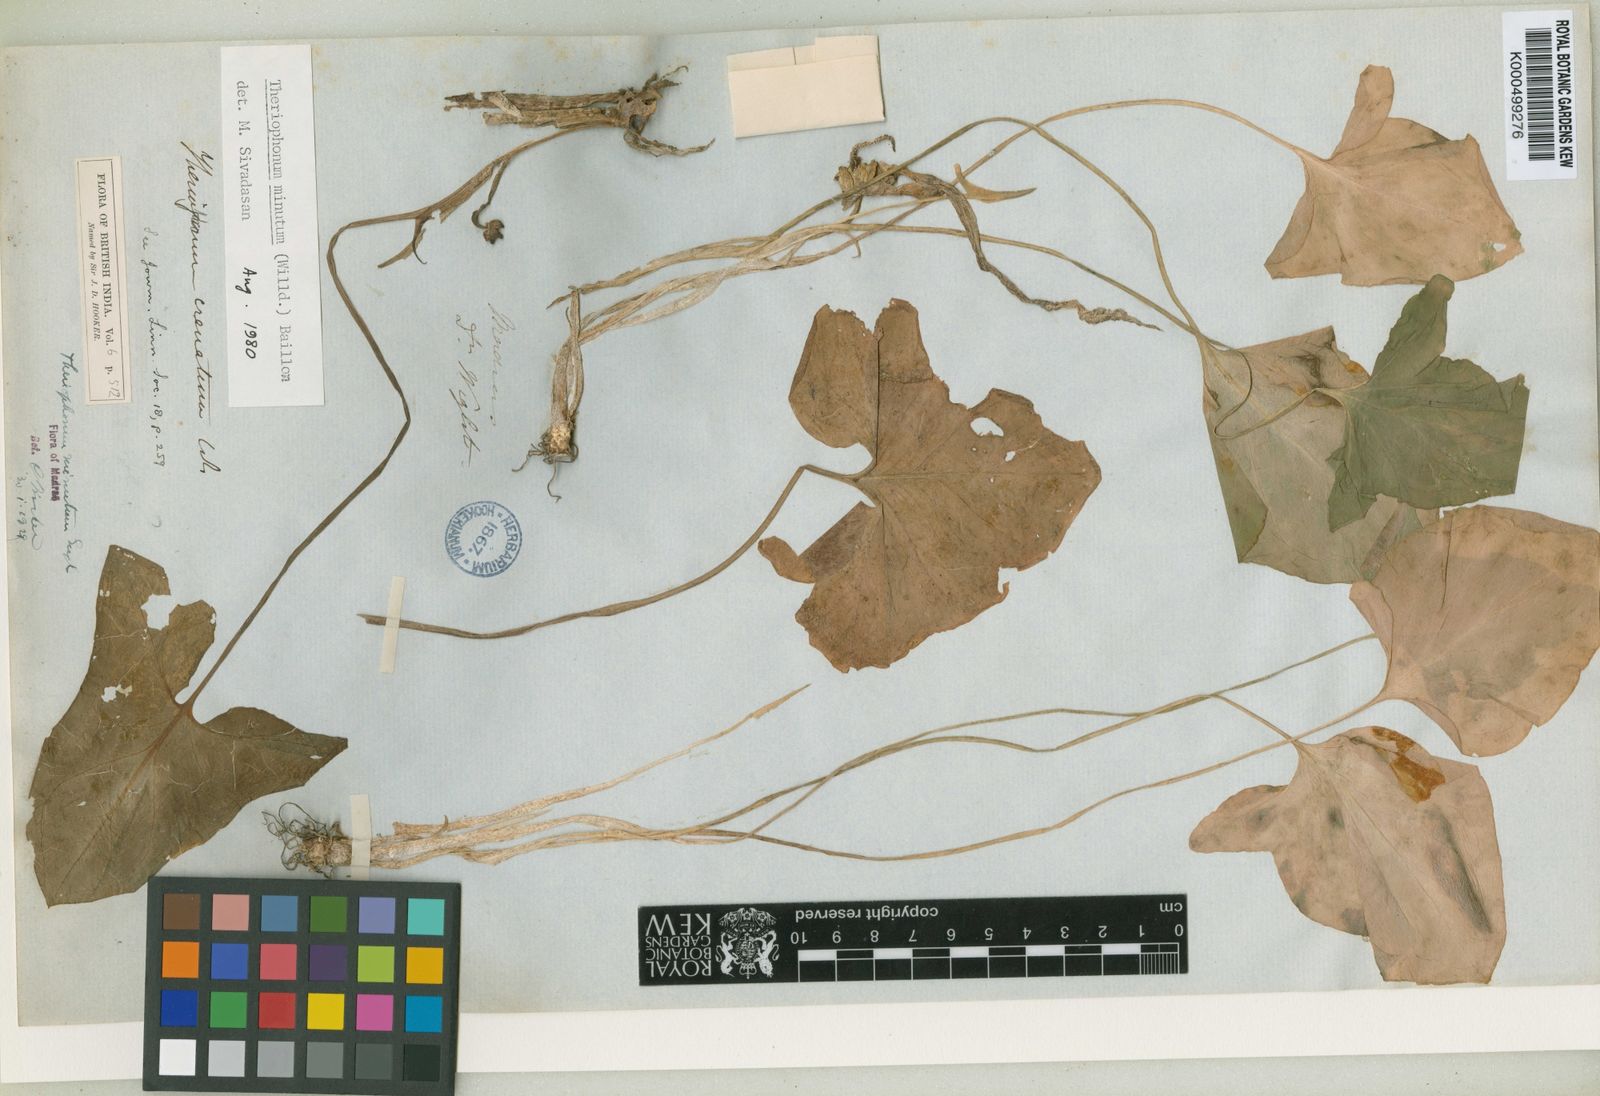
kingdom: Plantae
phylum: Tracheophyta
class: Liliopsida
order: Alismatales
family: Araceae
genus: Theriophonum
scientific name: Theriophonum
